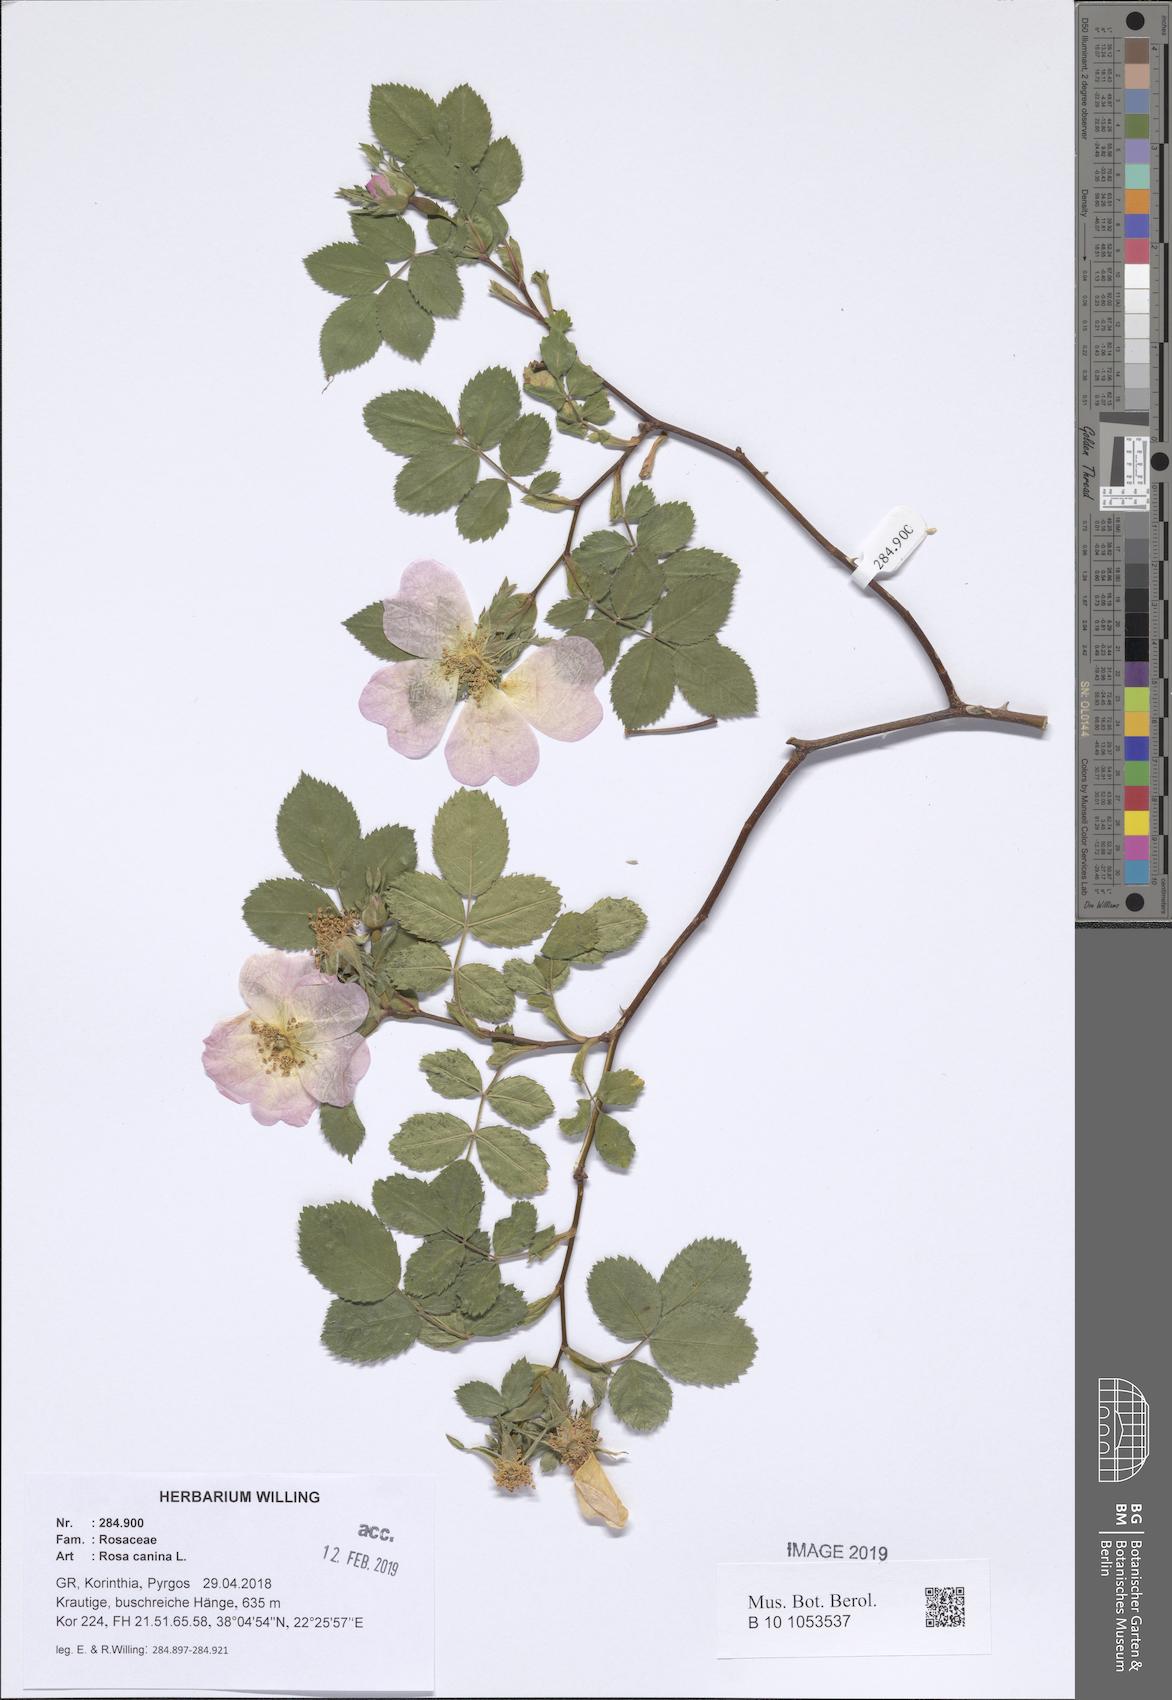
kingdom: Plantae
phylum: Tracheophyta
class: Magnoliopsida
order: Rosales
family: Rosaceae
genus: Rosa
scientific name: Rosa canina
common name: Dog rose
